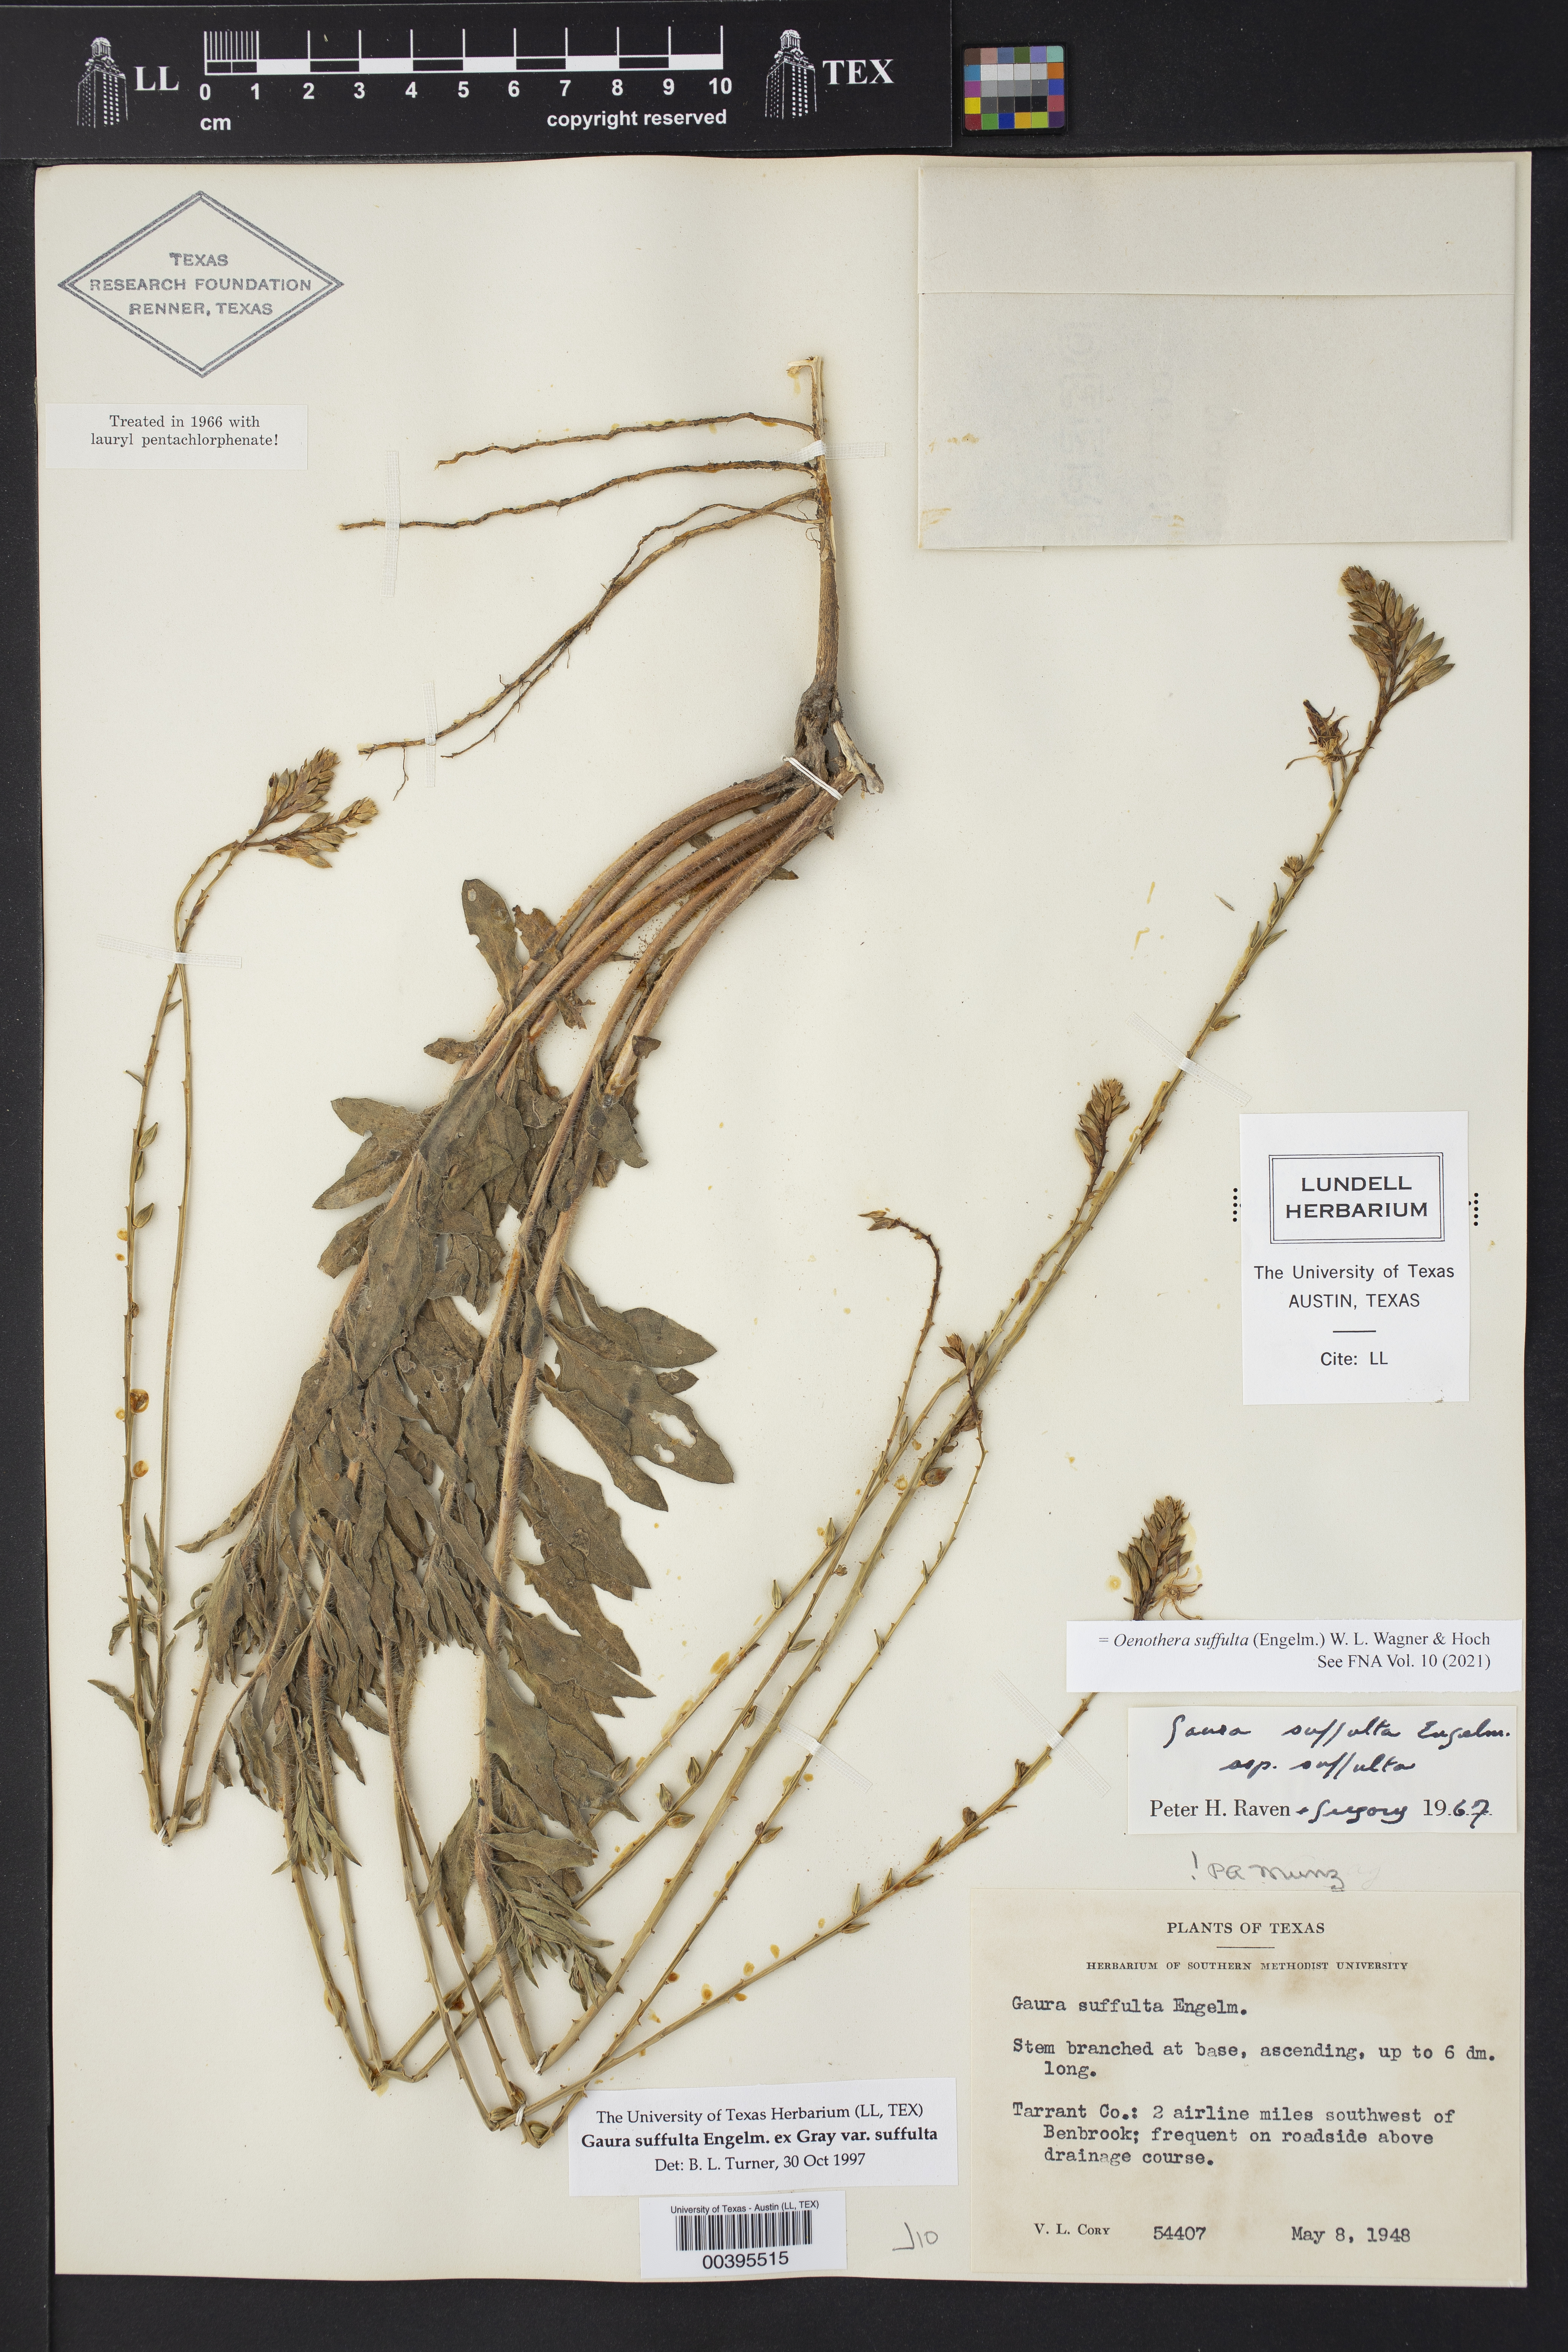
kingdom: Plantae
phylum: Tracheophyta
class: Magnoliopsida
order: Myrtales
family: Onagraceae
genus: Oenothera
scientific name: Oenothera suffulta
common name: Kisses
